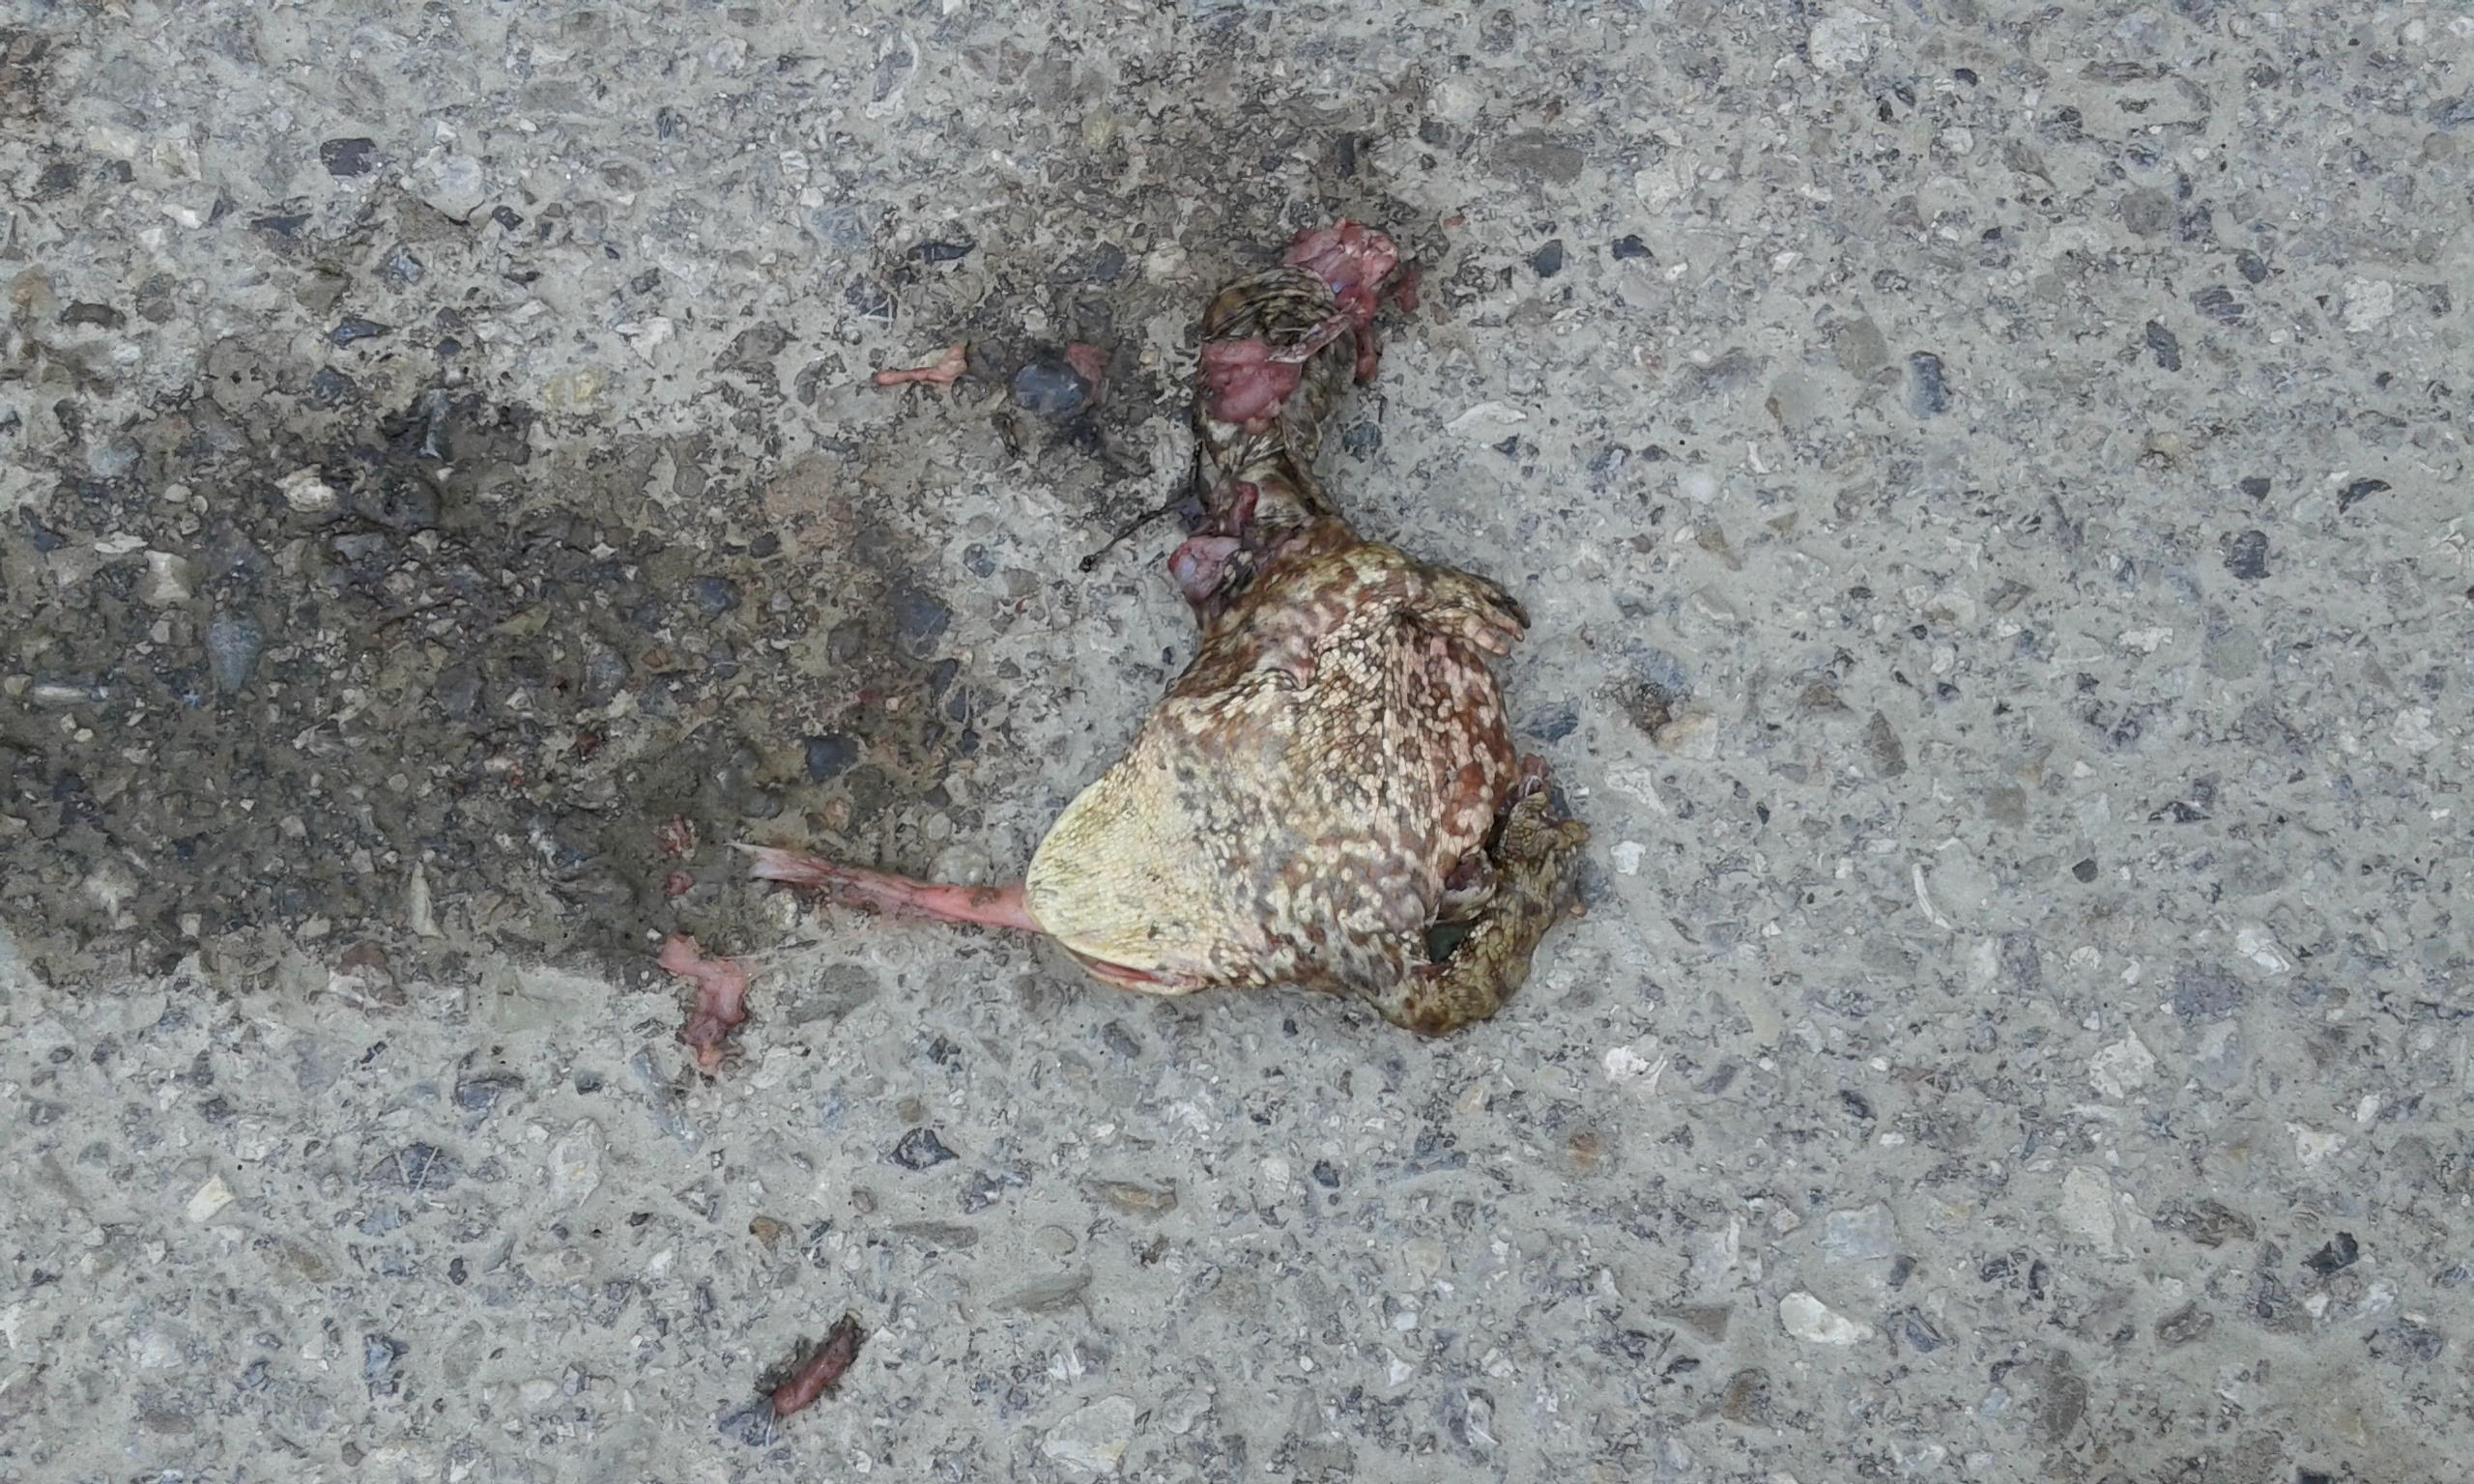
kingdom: Animalia
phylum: Chordata
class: Amphibia
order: Anura
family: Bufonidae
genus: Bufo
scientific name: Bufo bufo
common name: Common toad
